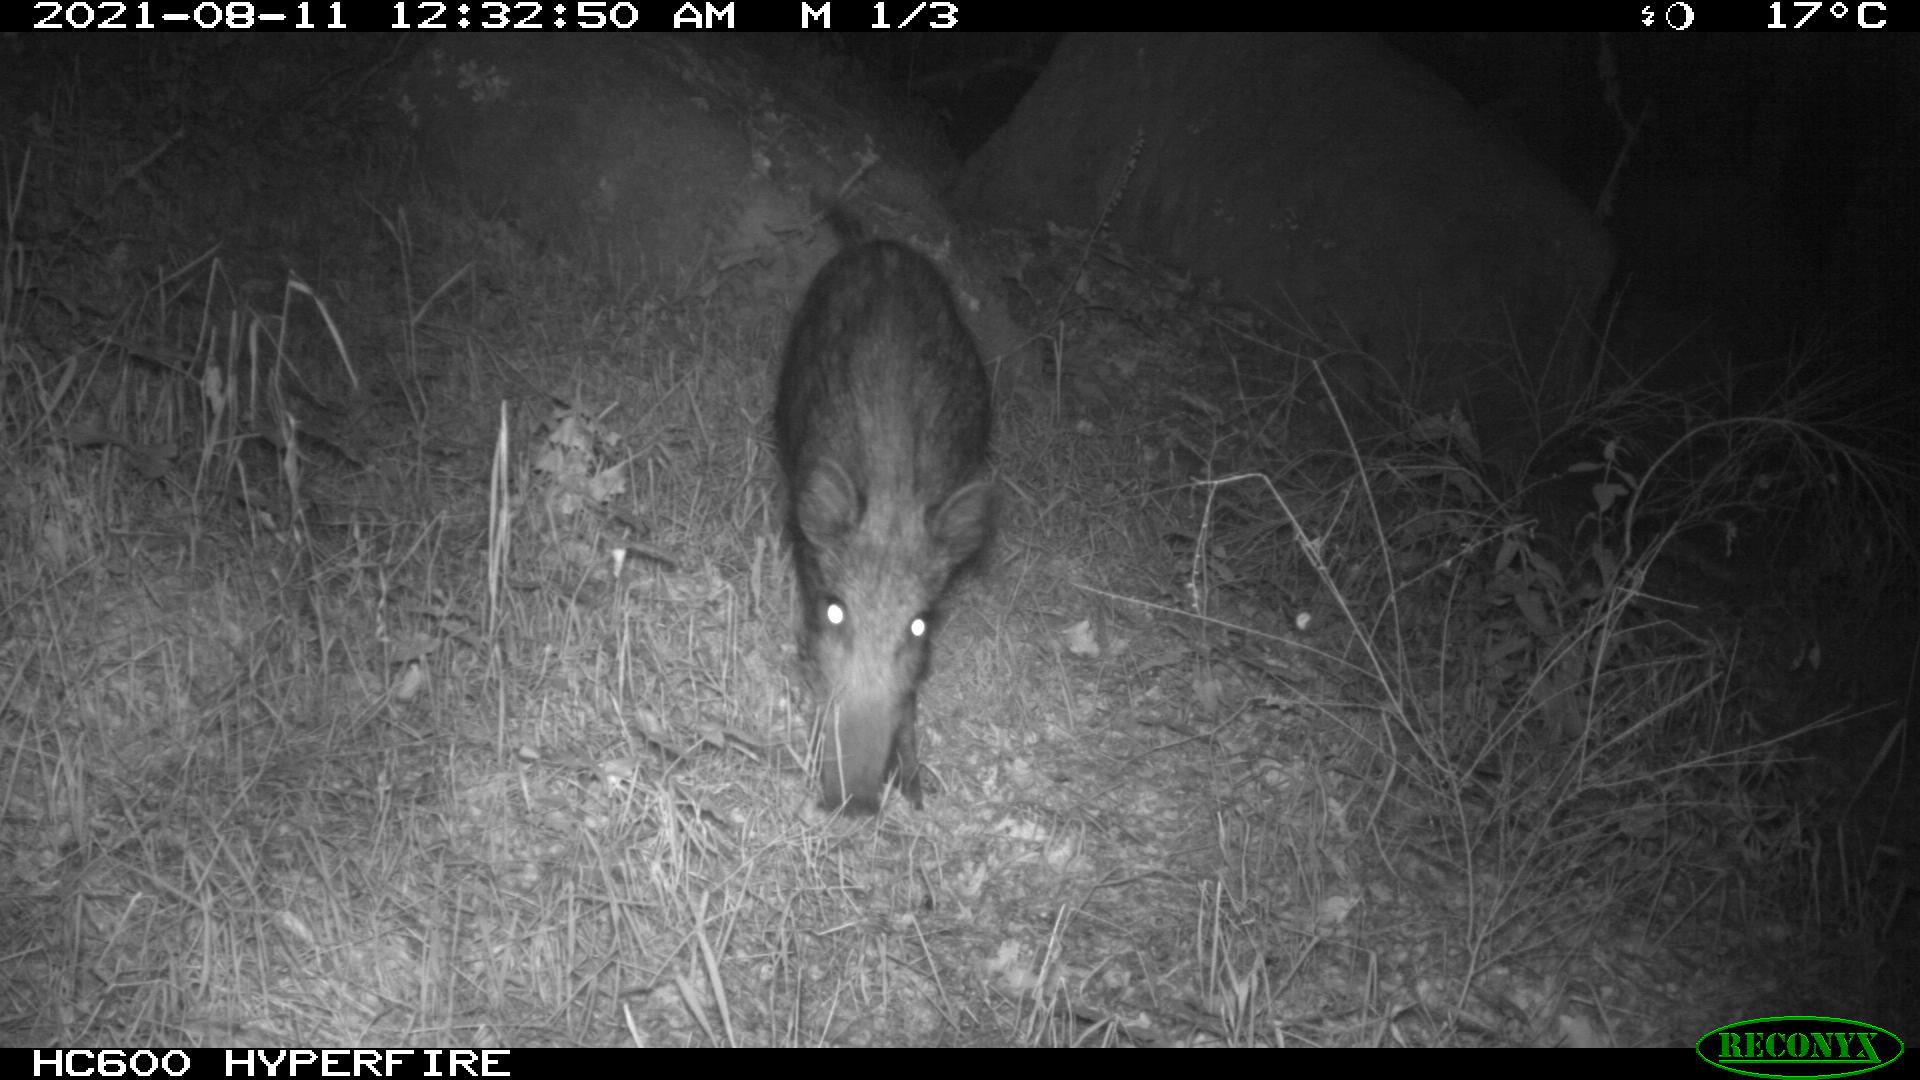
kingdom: Animalia
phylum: Chordata
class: Mammalia
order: Artiodactyla
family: Suidae
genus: Sus
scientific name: Sus scrofa
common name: Wild boar
